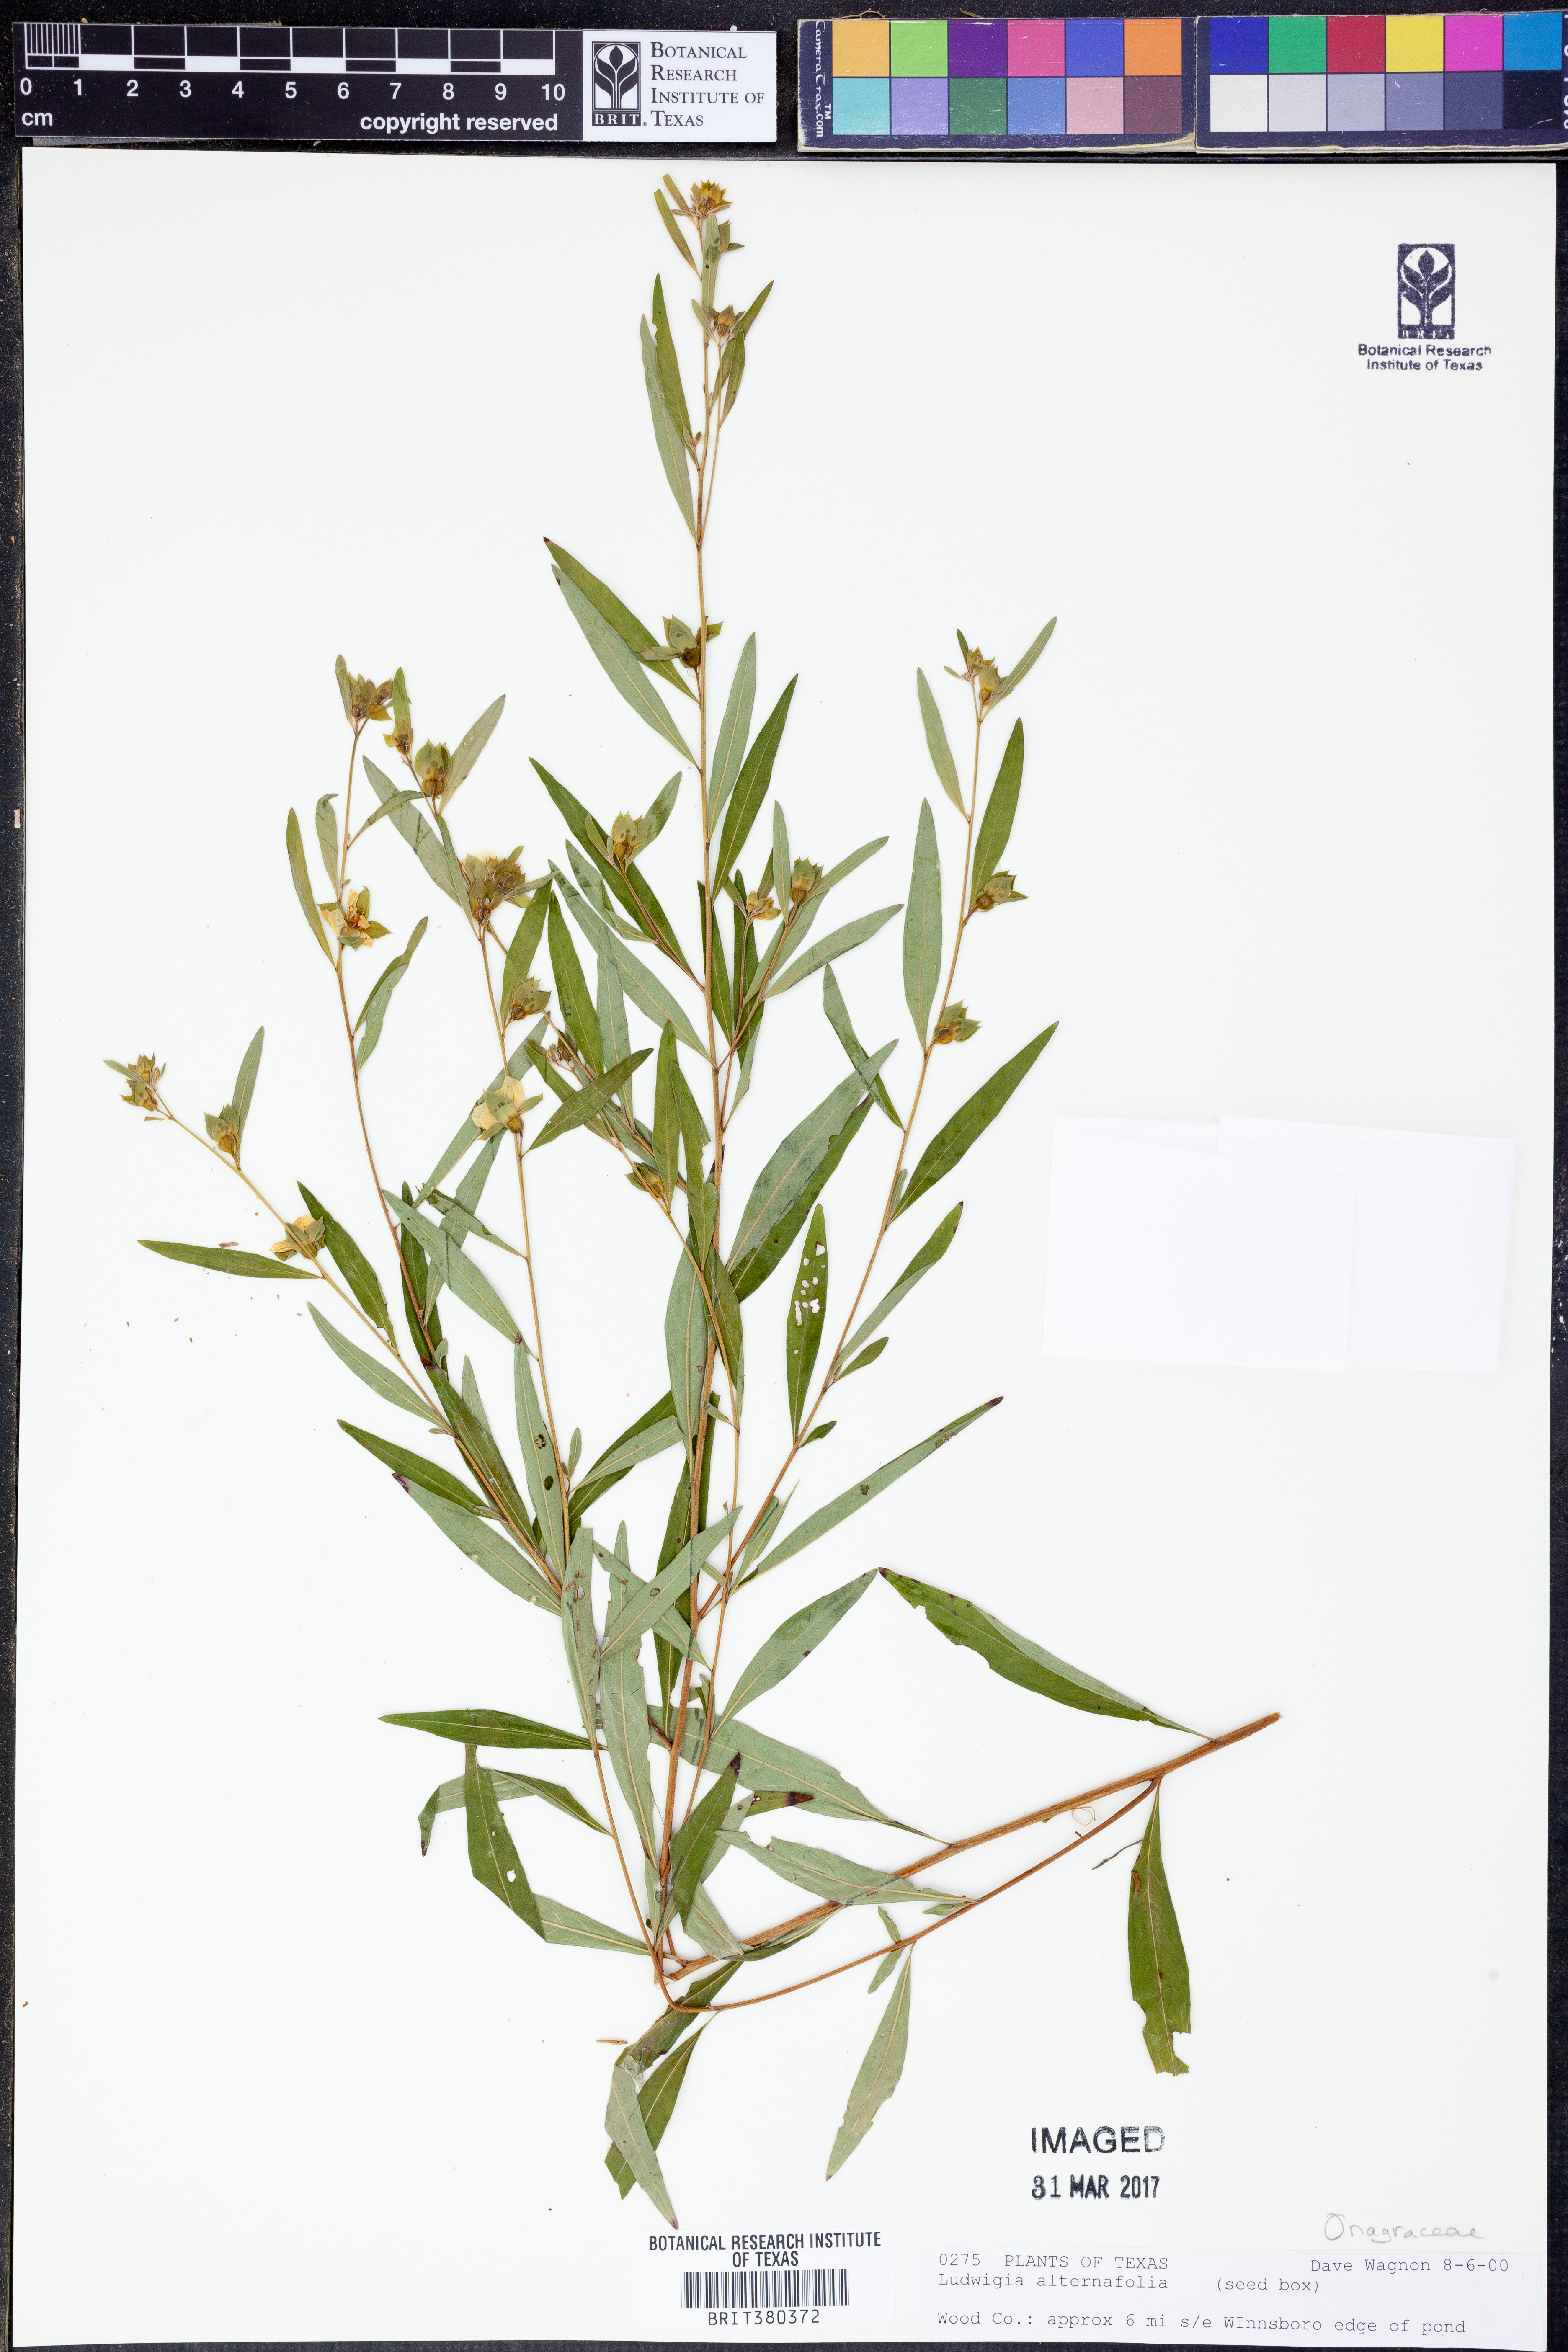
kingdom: Plantae
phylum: Tracheophyta
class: Magnoliopsida
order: Myrtales
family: Onagraceae
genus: Ludwigia
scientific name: Ludwigia alternifolia
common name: Rattlebox
